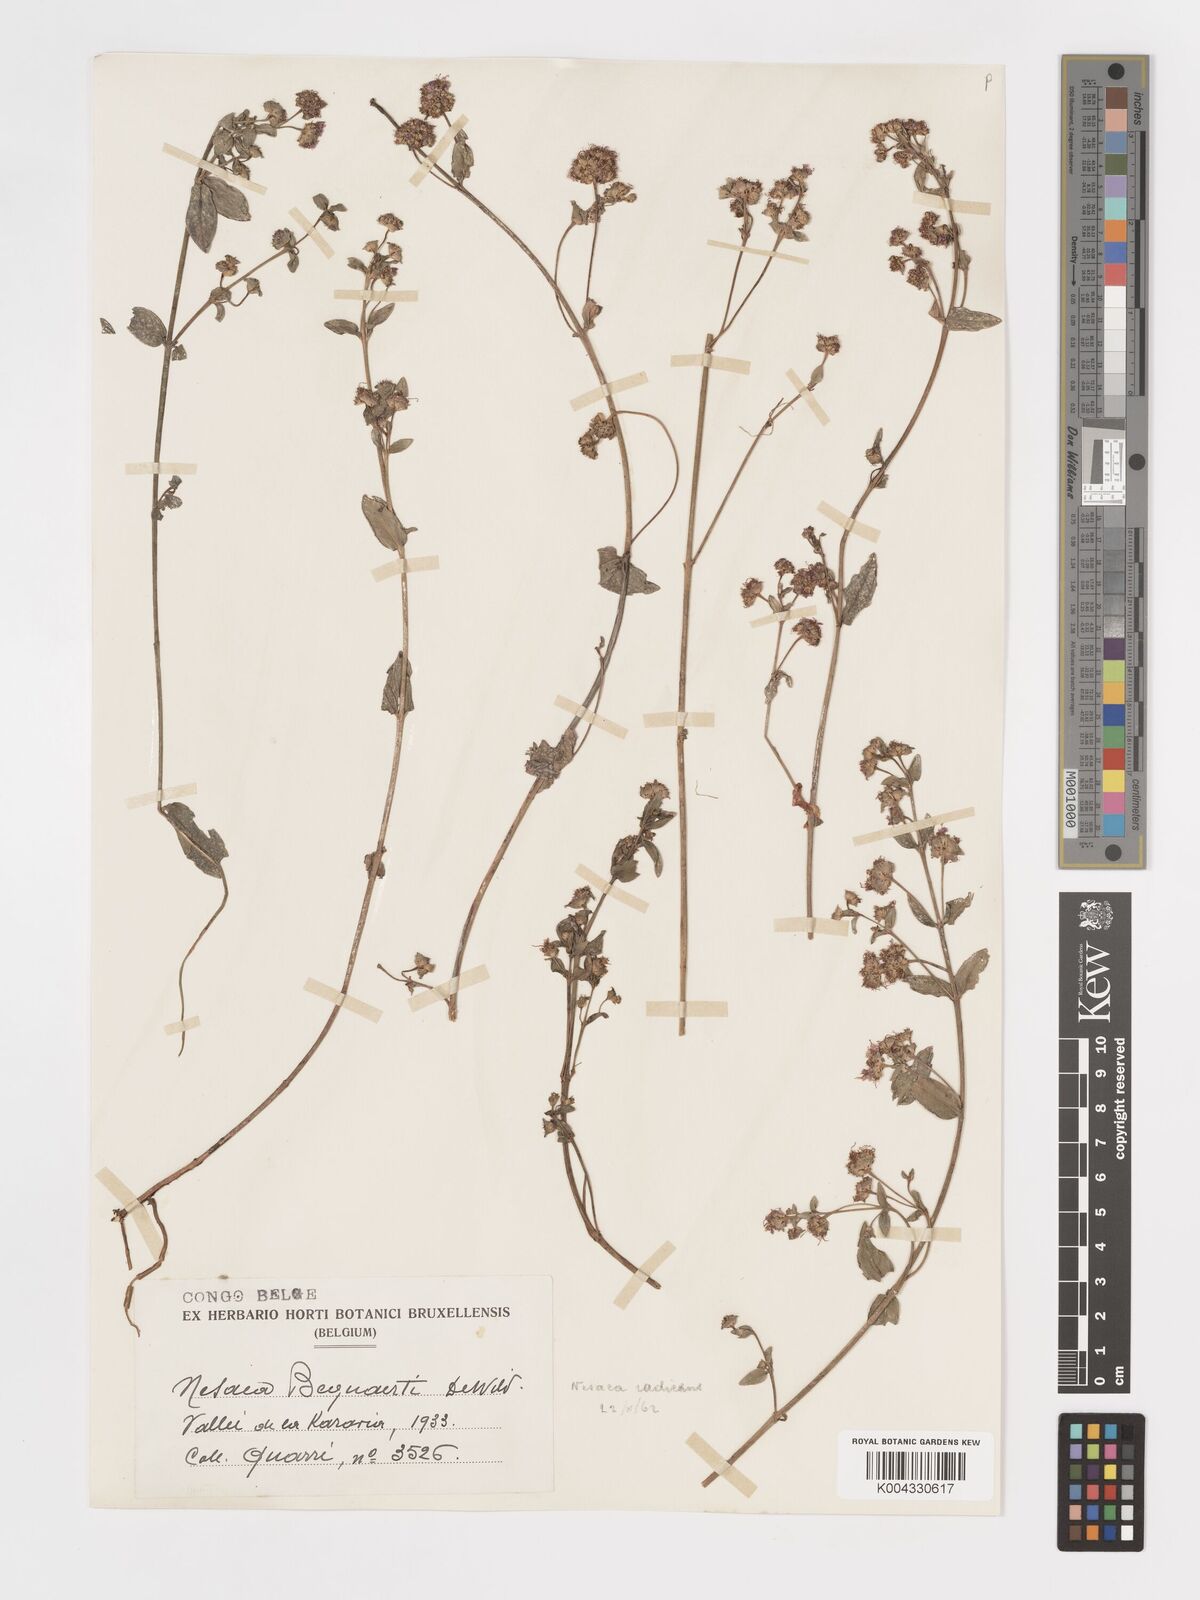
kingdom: Plantae
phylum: Tracheophyta
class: Magnoliopsida
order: Myrtales
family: Lythraceae
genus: Ammannia
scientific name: Ammannia radicans
